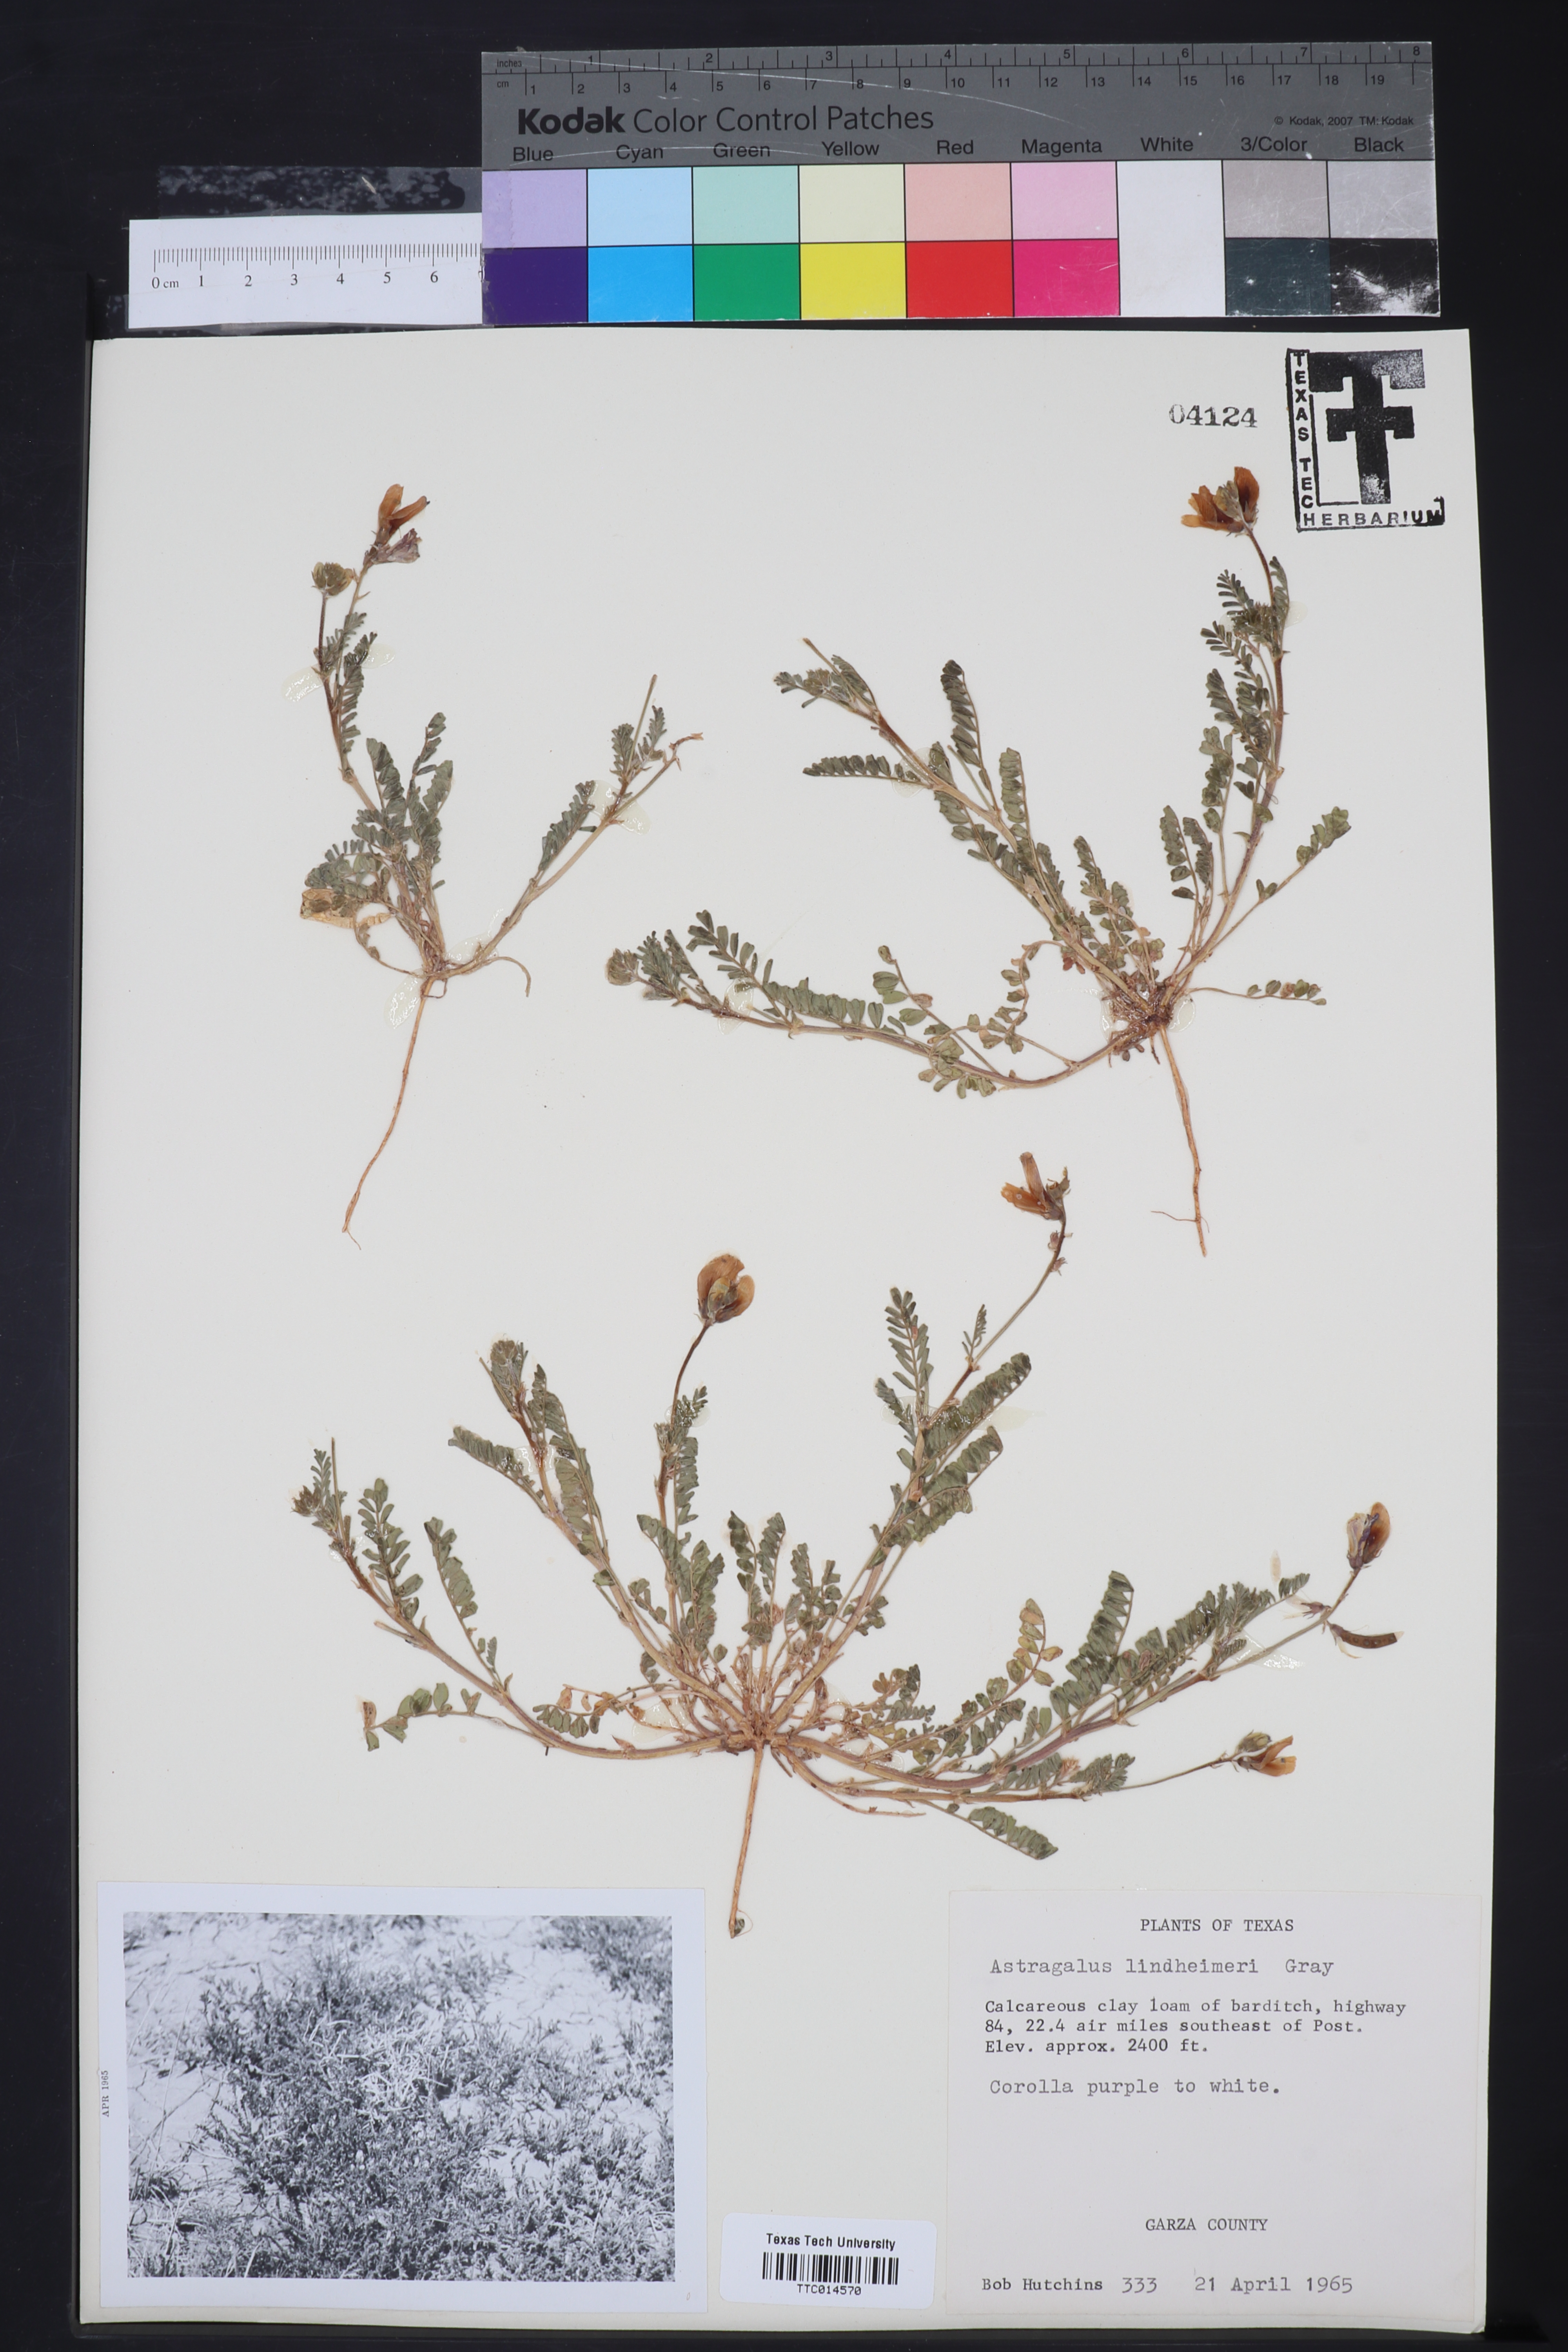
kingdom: Plantae
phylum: Tracheophyta
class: Magnoliopsida
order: Fabales
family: Fabaceae
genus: Astragalus
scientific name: Astragalus lindheimeri
